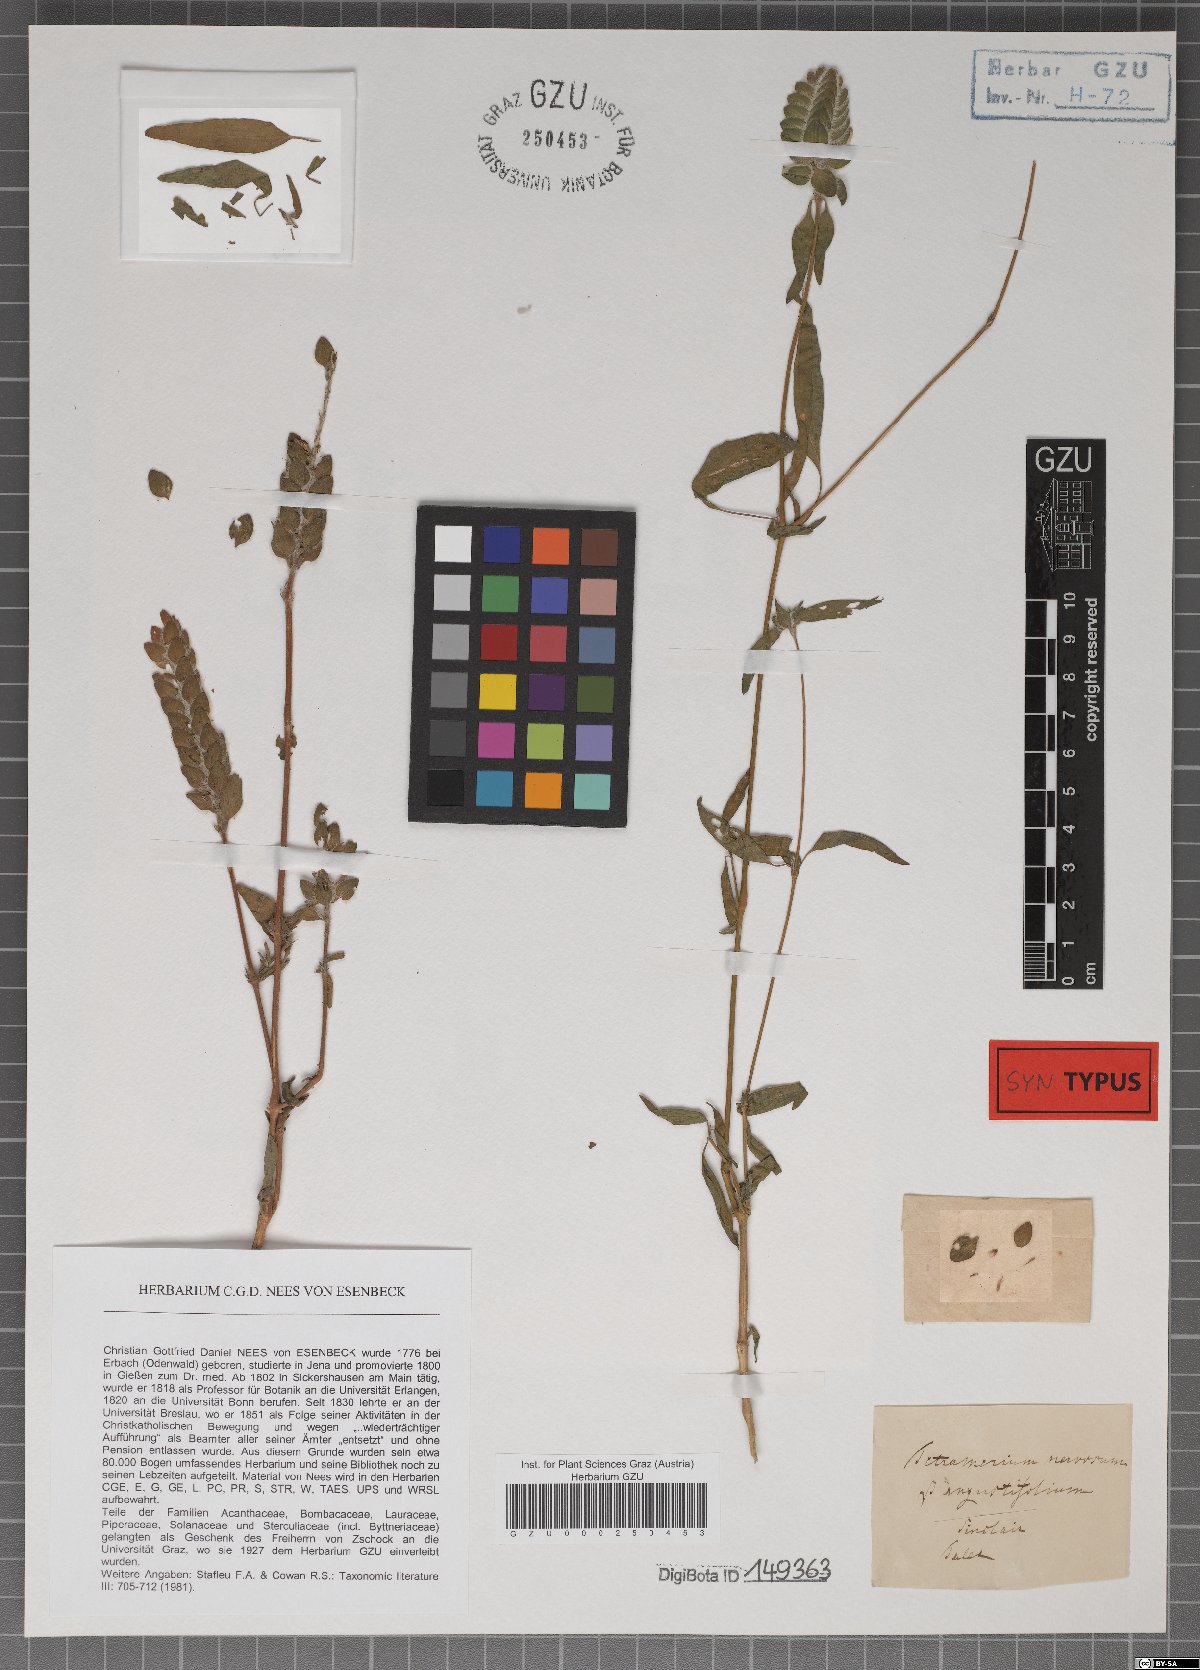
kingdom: Plantae
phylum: Tracheophyta
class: Magnoliopsida
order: Lamiales
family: Acanthaceae
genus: Tetramerium
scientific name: Tetramerium nervosum
